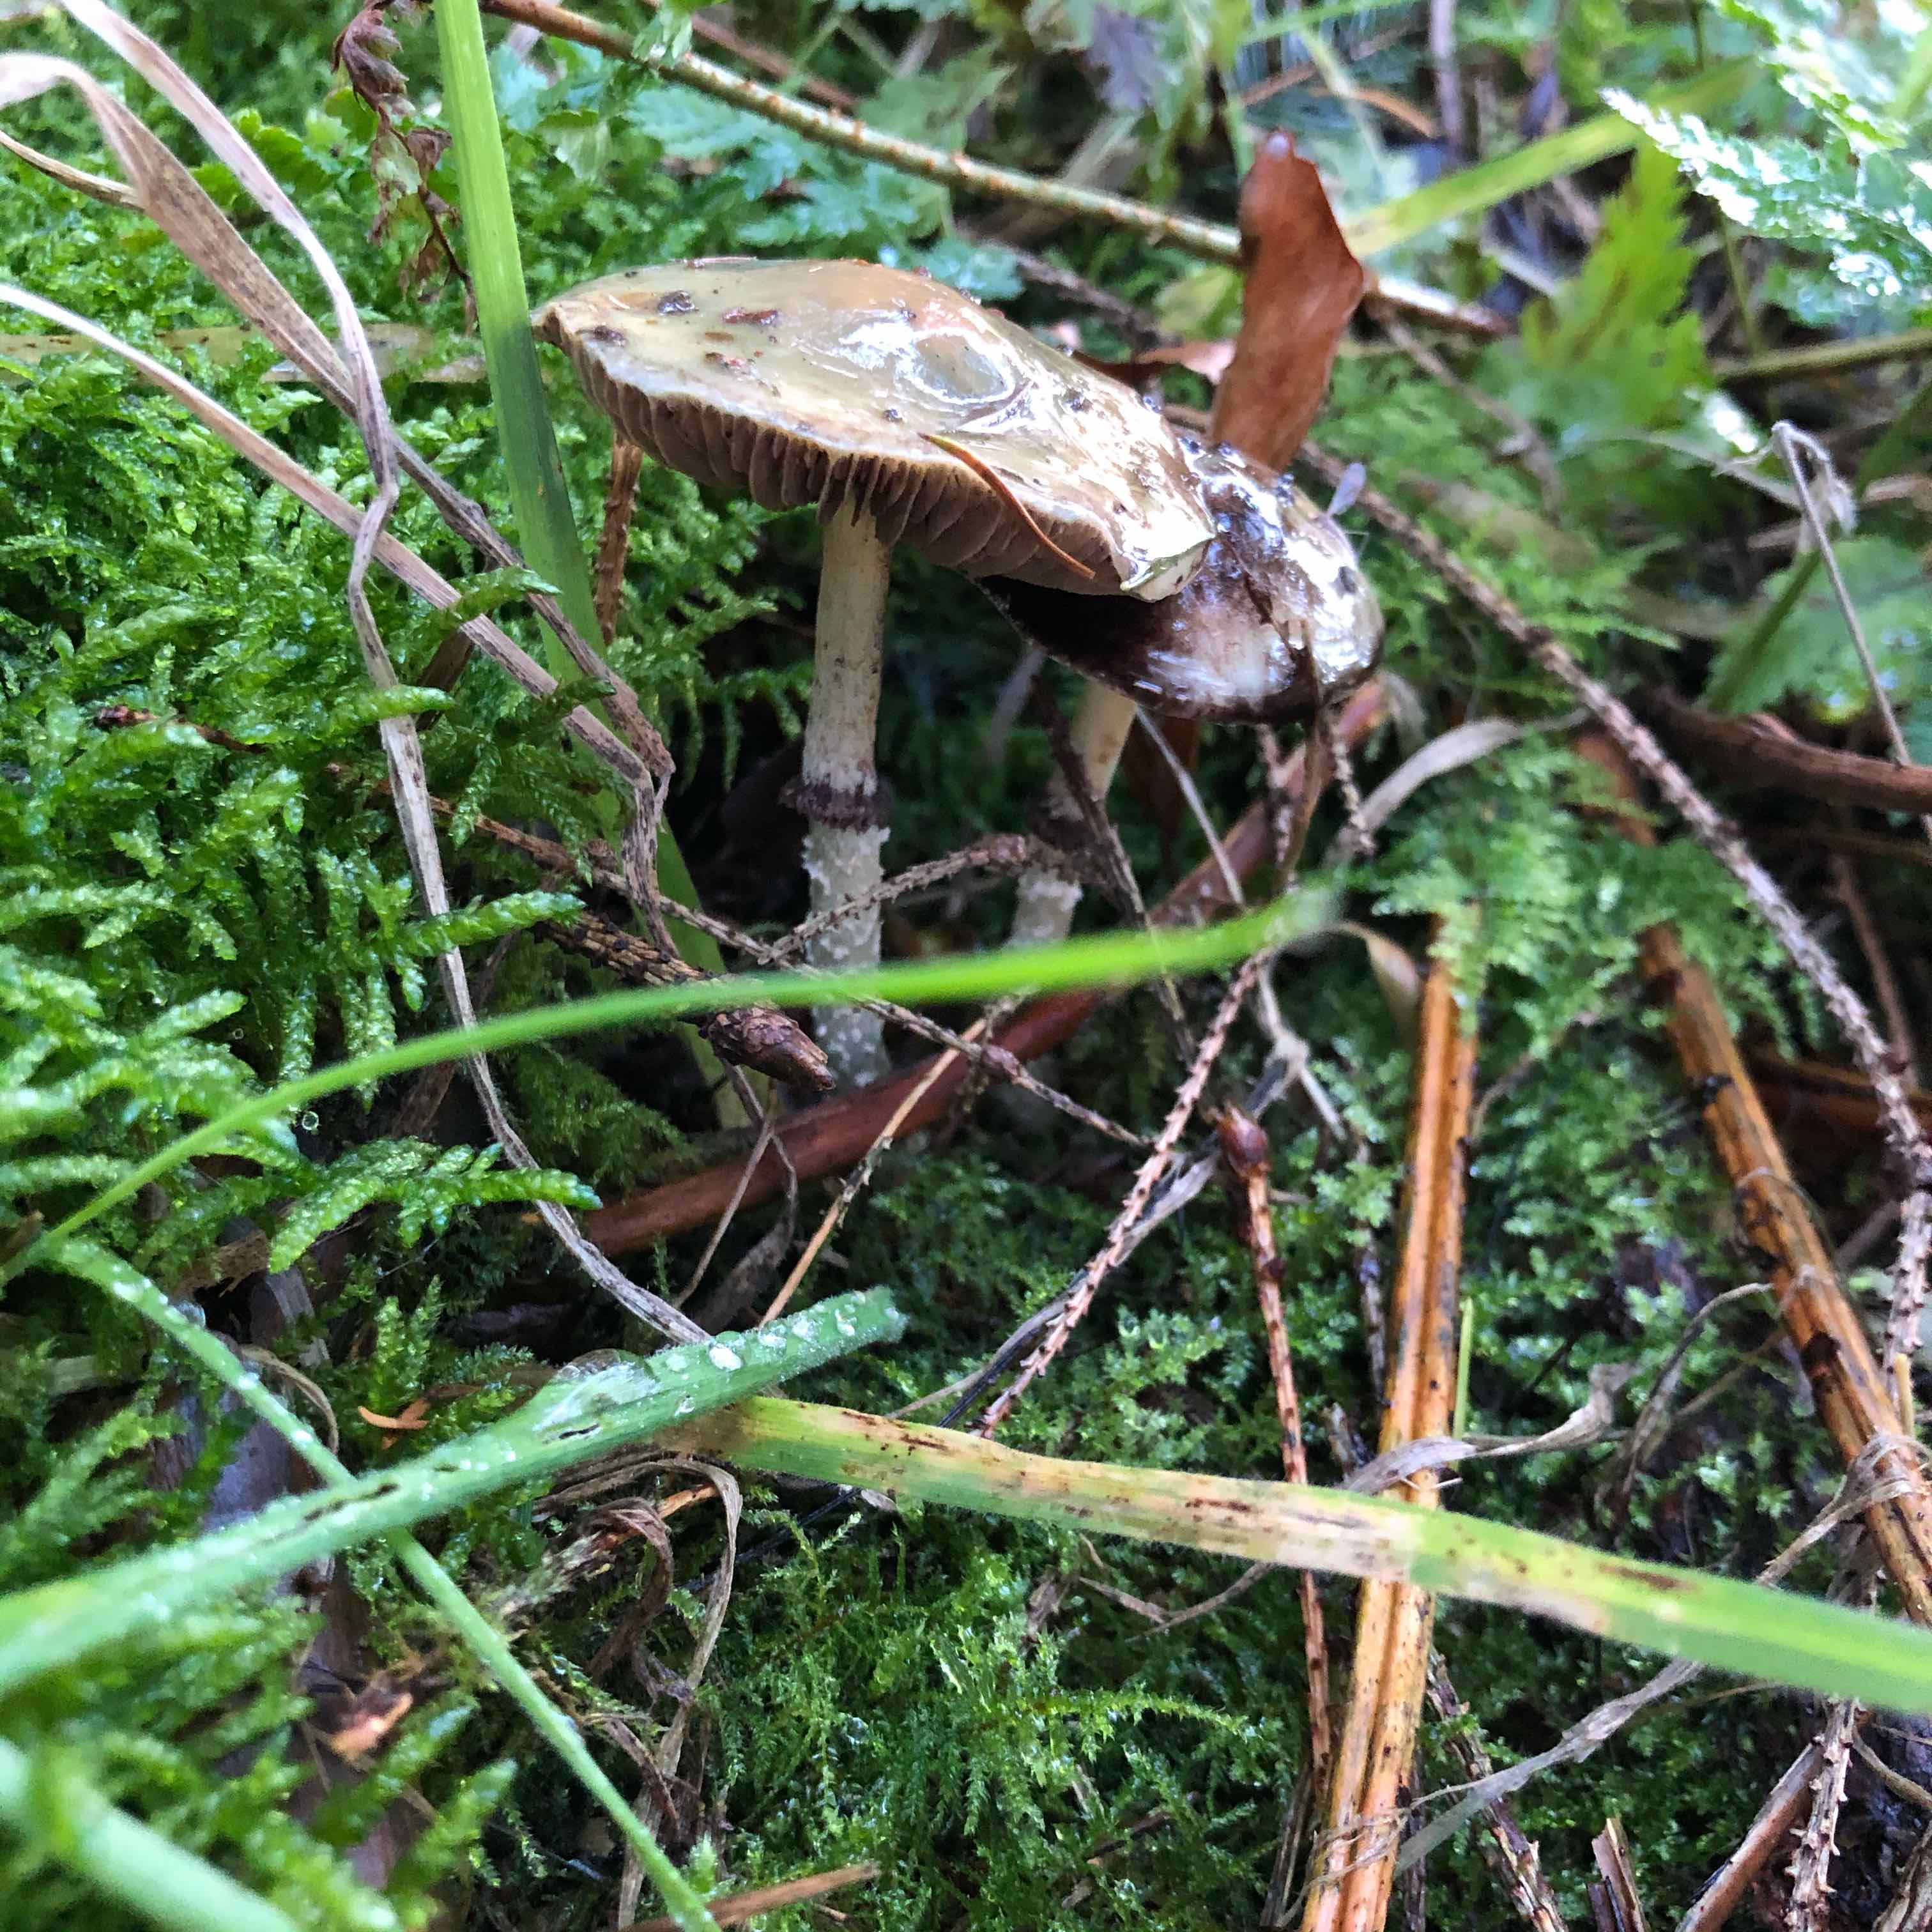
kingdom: Fungi
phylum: Basidiomycota
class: Agaricomycetes
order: Agaricales
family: Strophariaceae
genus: Stropharia
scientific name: Stropharia aeruginosa
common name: spanskgrøn bredblad
